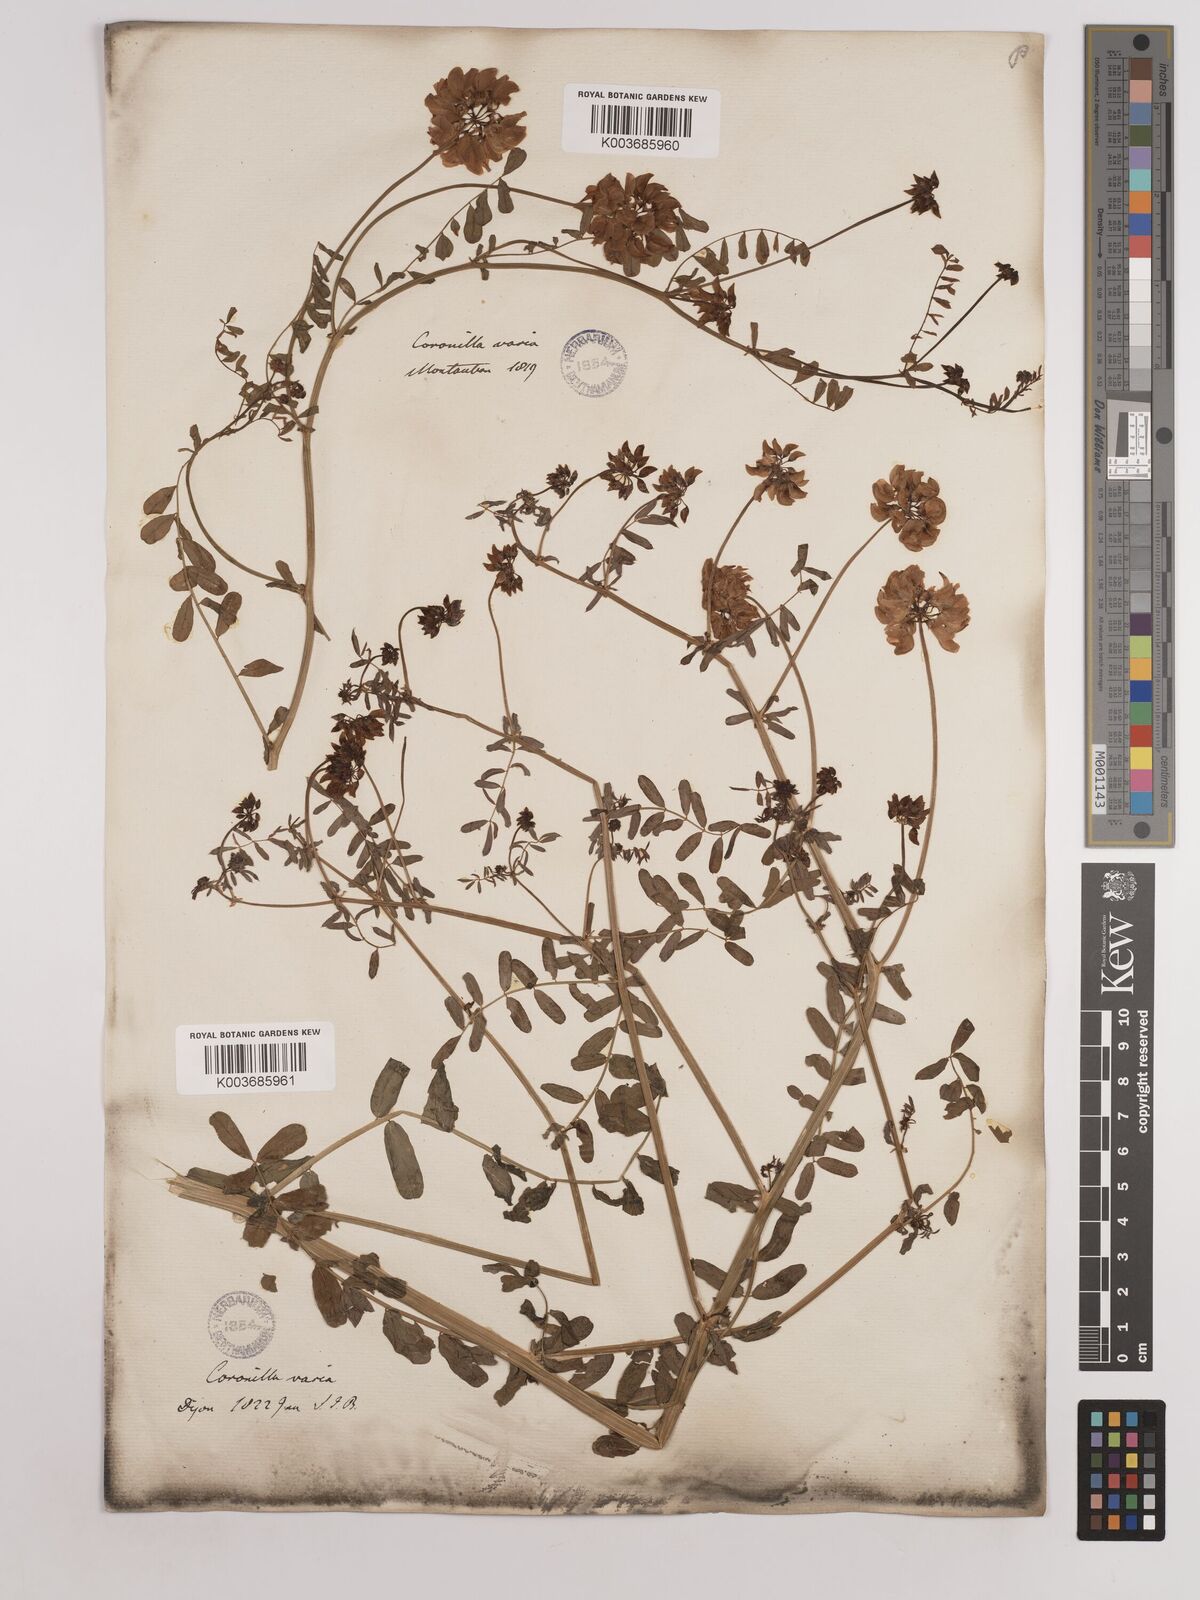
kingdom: Plantae
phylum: Tracheophyta
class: Magnoliopsida
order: Fabales
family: Fabaceae
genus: Coronilla
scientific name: Coronilla varia
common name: Crownvetch
